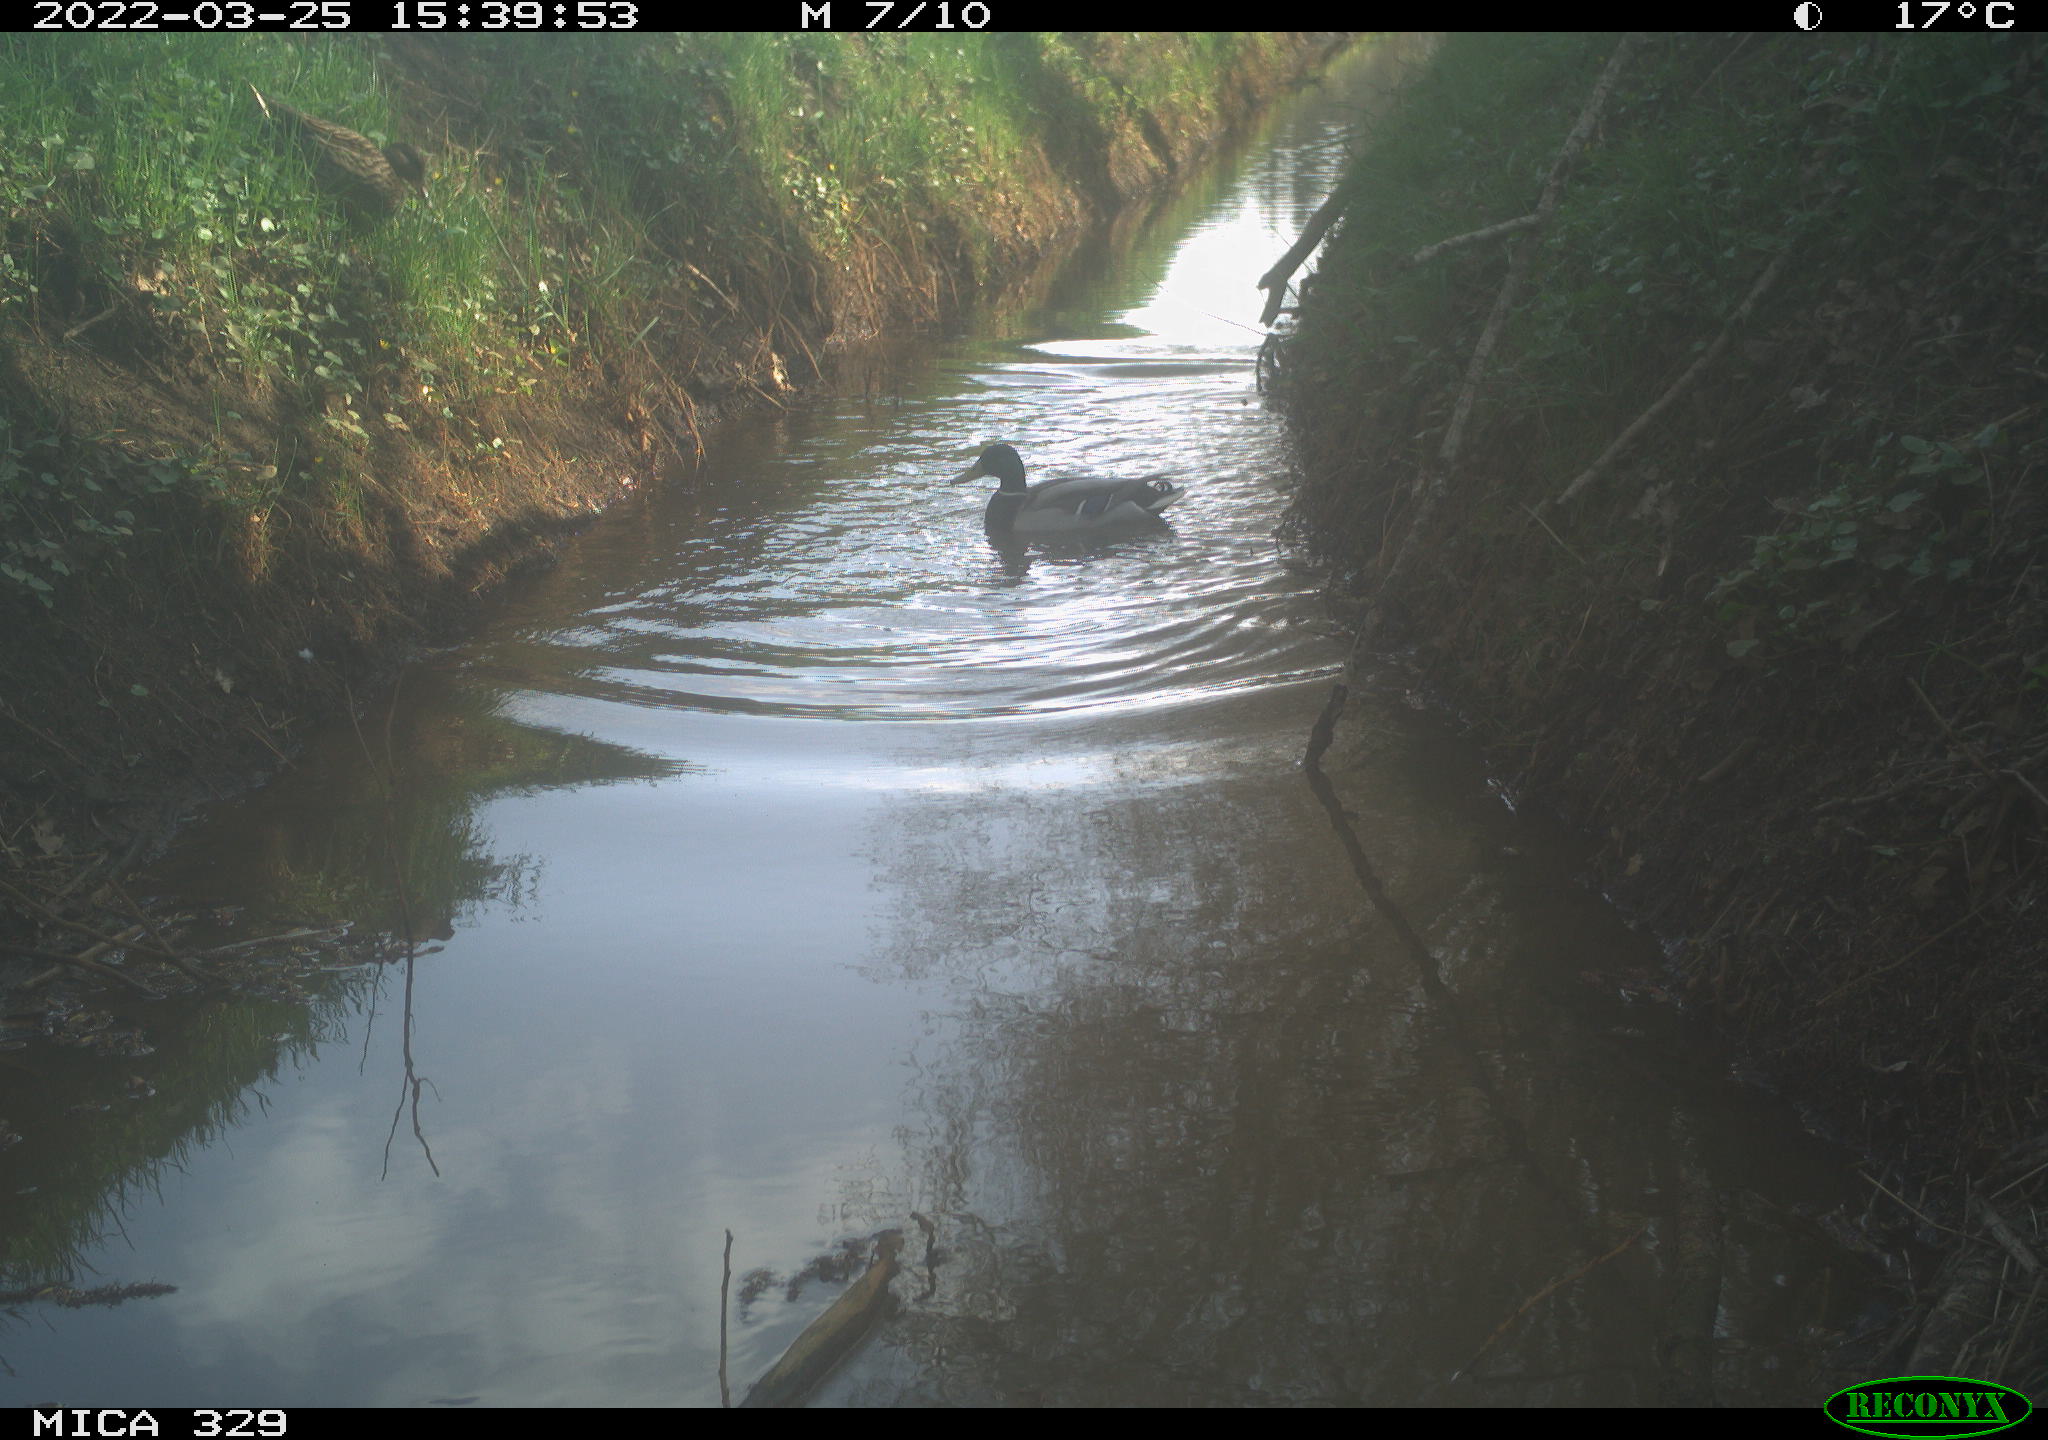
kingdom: Animalia
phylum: Chordata
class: Aves
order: Anseriformes
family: Anatidae
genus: Anas
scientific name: Anas platyrhynchos
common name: Mallard
